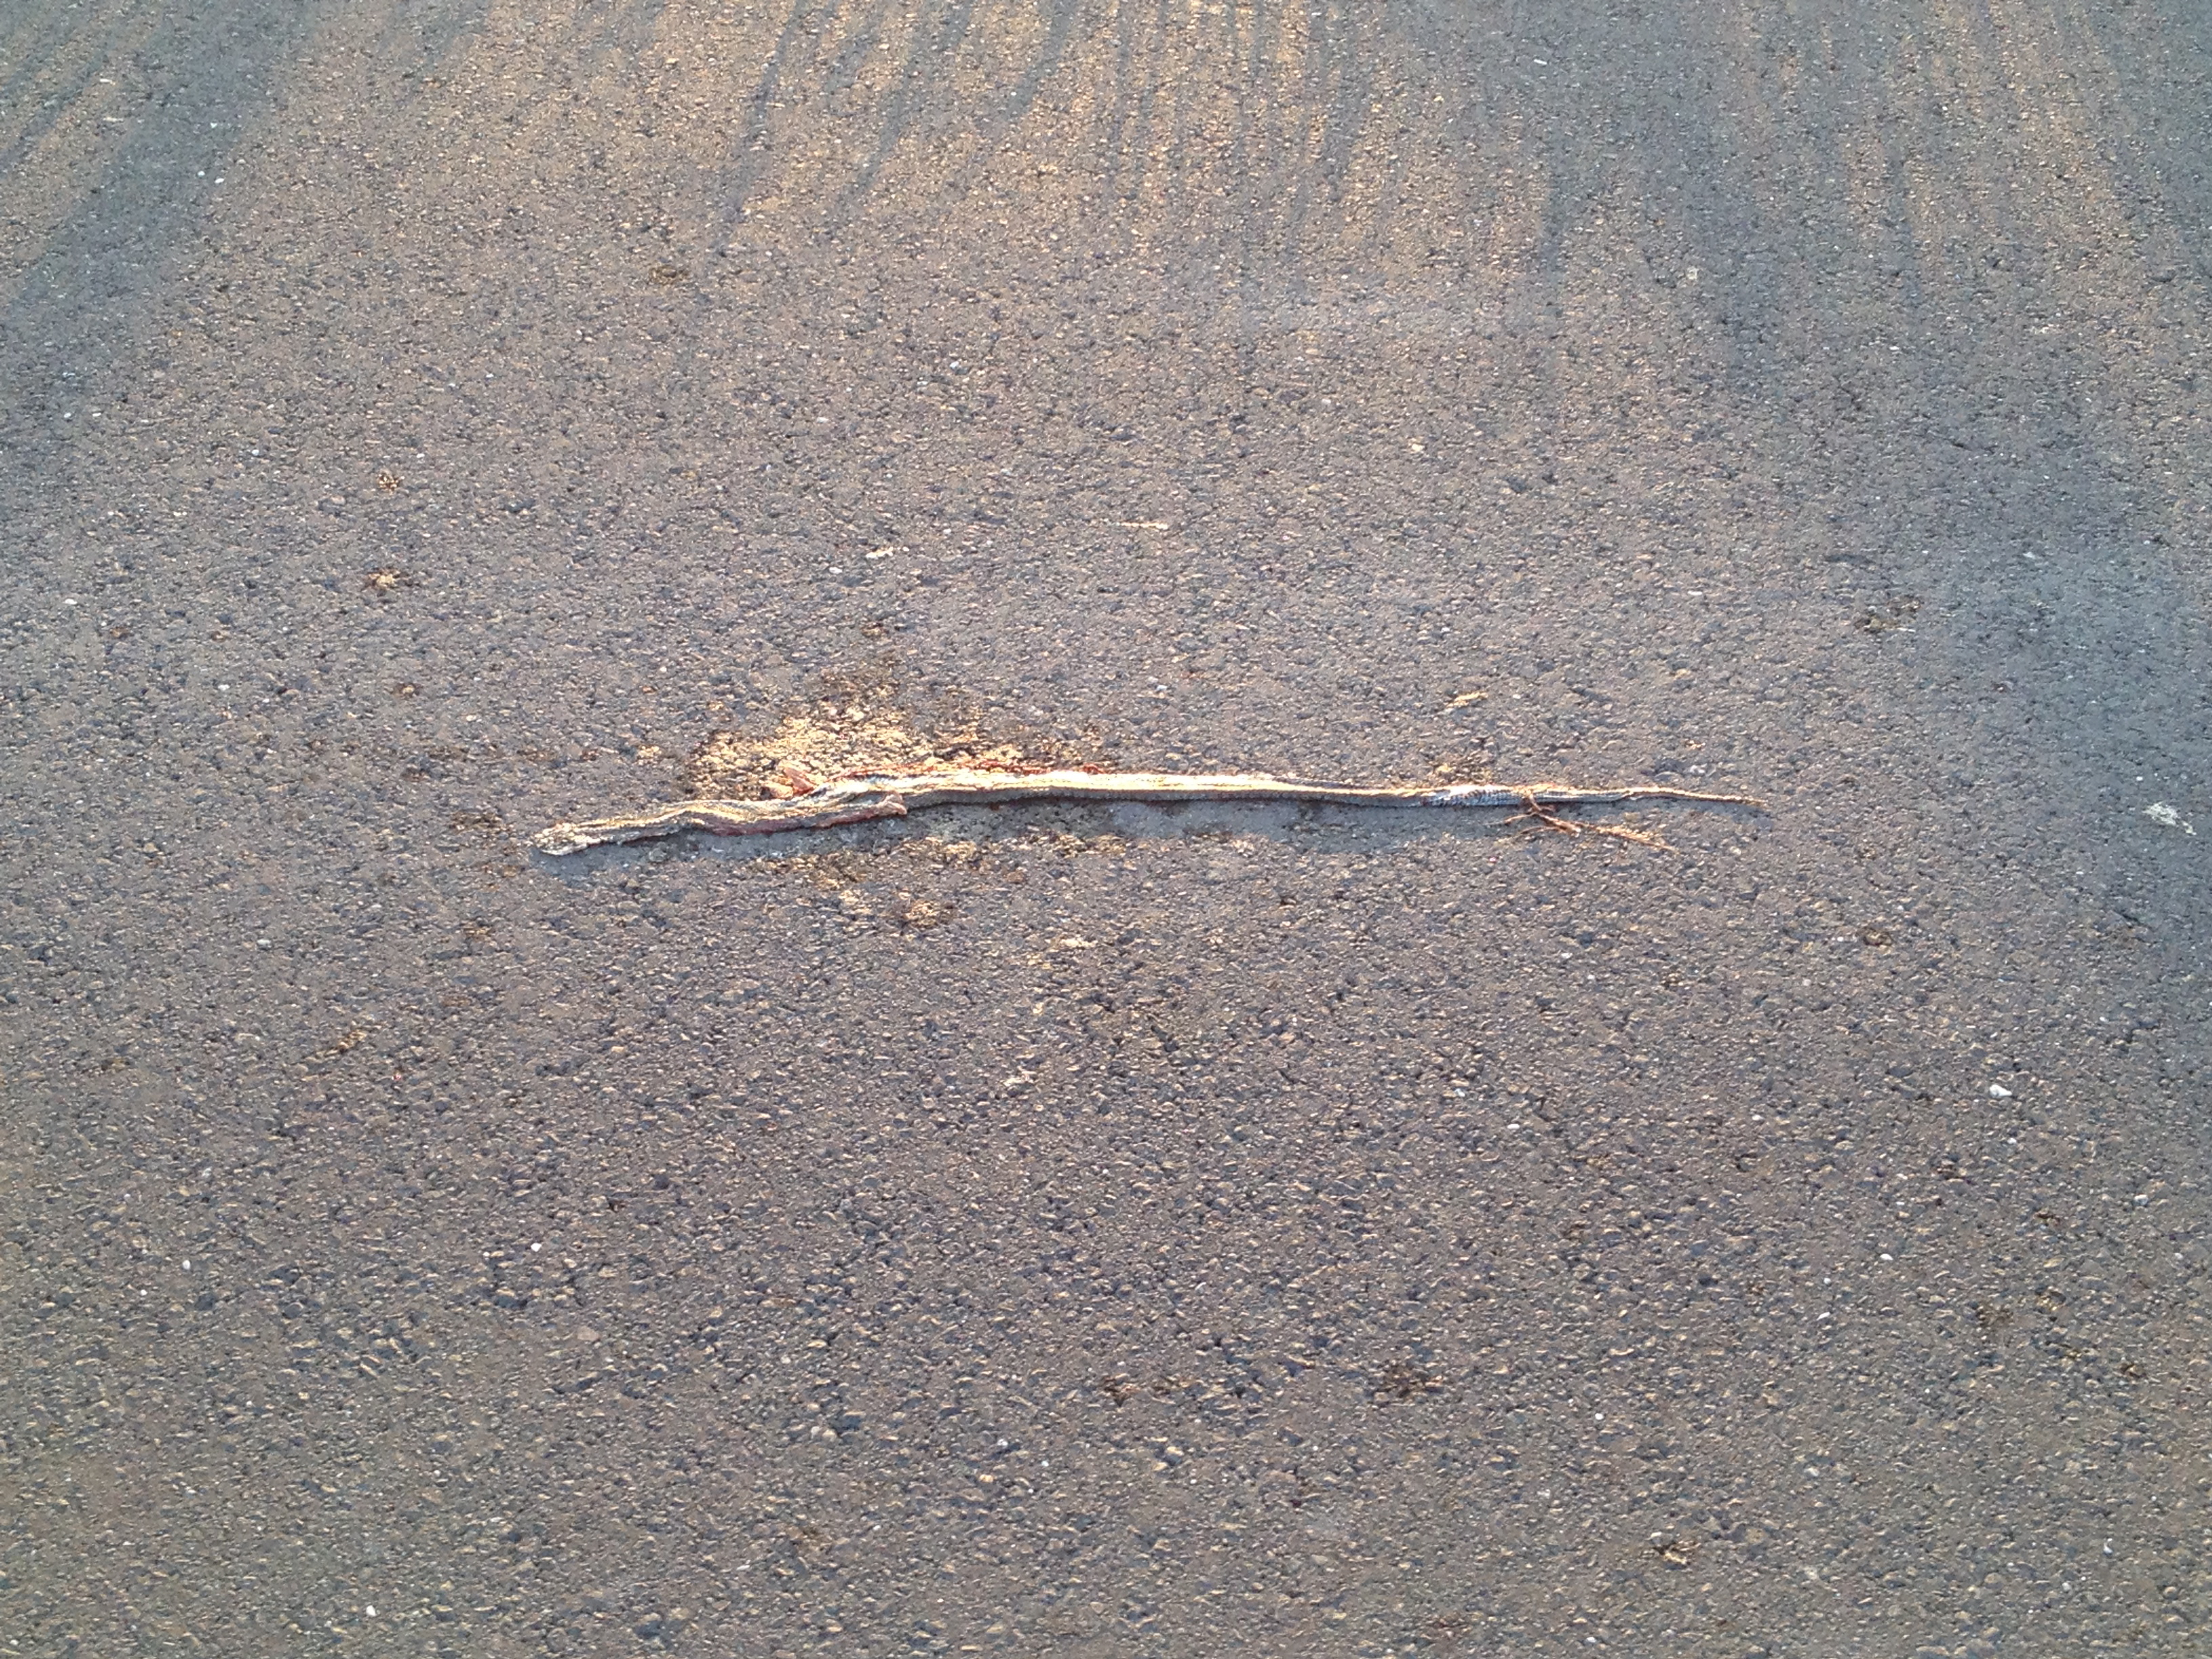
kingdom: Animalia
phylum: Chordata
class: Squamata
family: Colubridae
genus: Natrix
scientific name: Natrix natrix
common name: Grass snake
